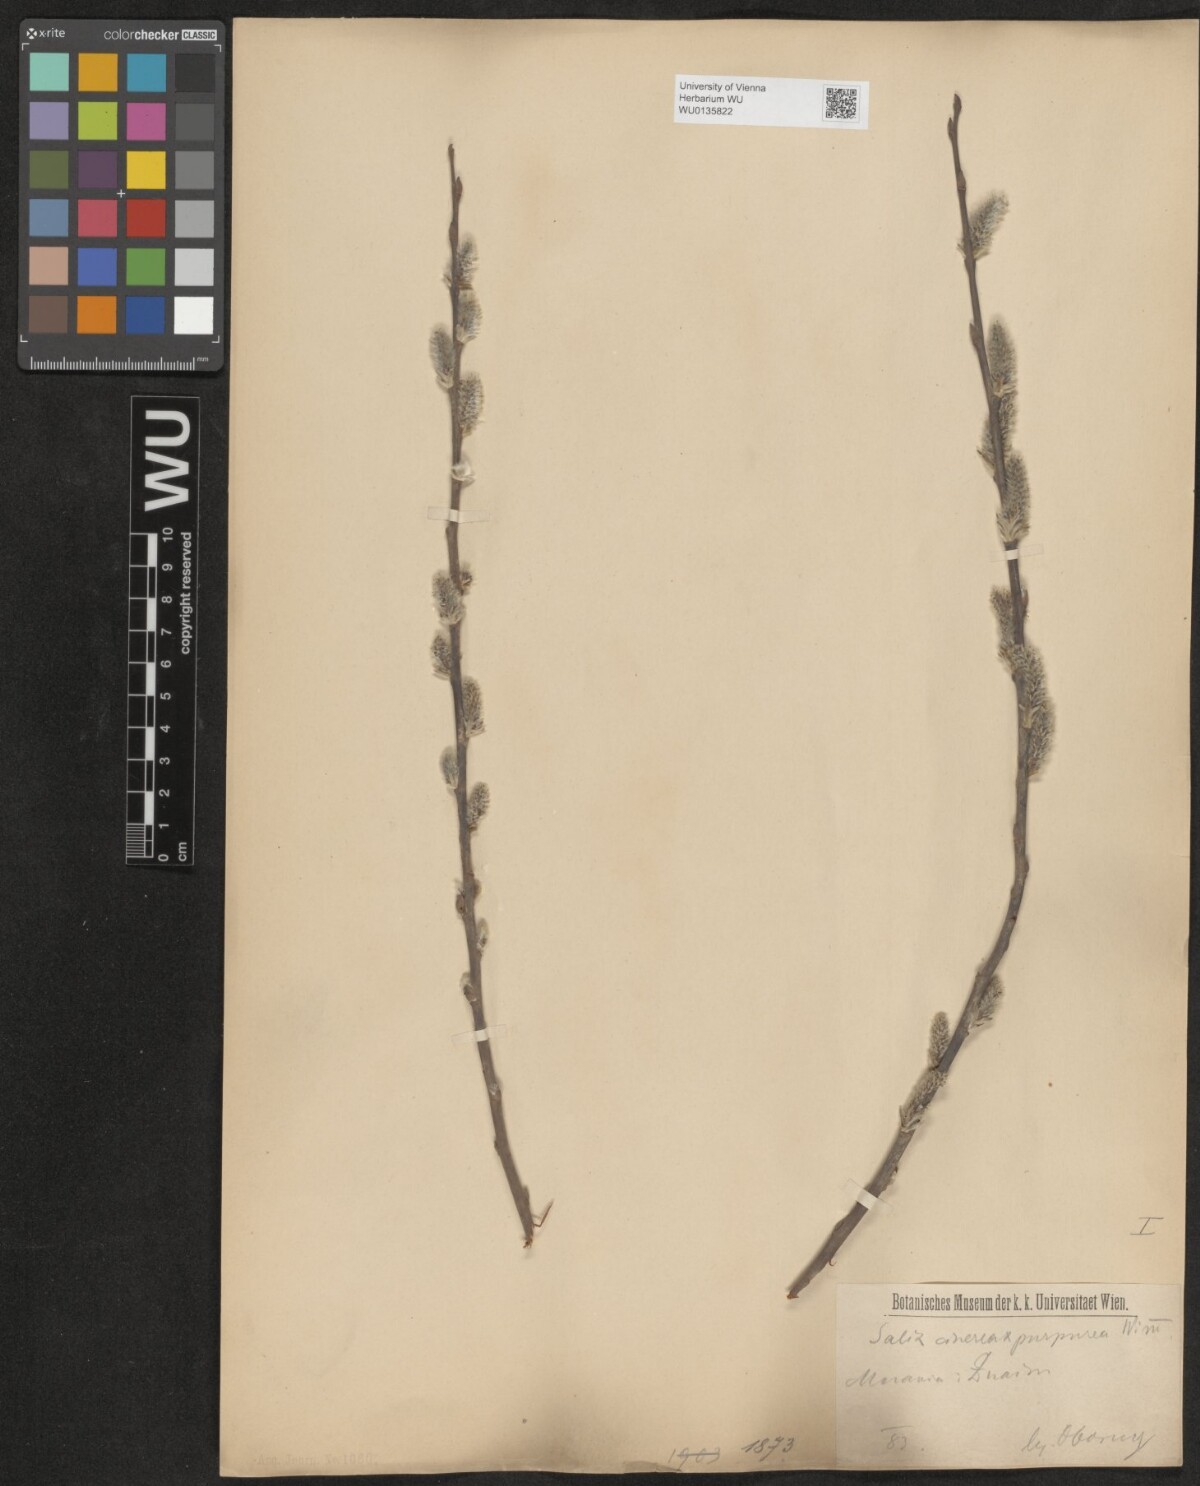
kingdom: Plantae
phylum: Tracheophyta
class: Magnoliopsida
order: Malpighiales
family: Salicaceae
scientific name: Salicaceae
